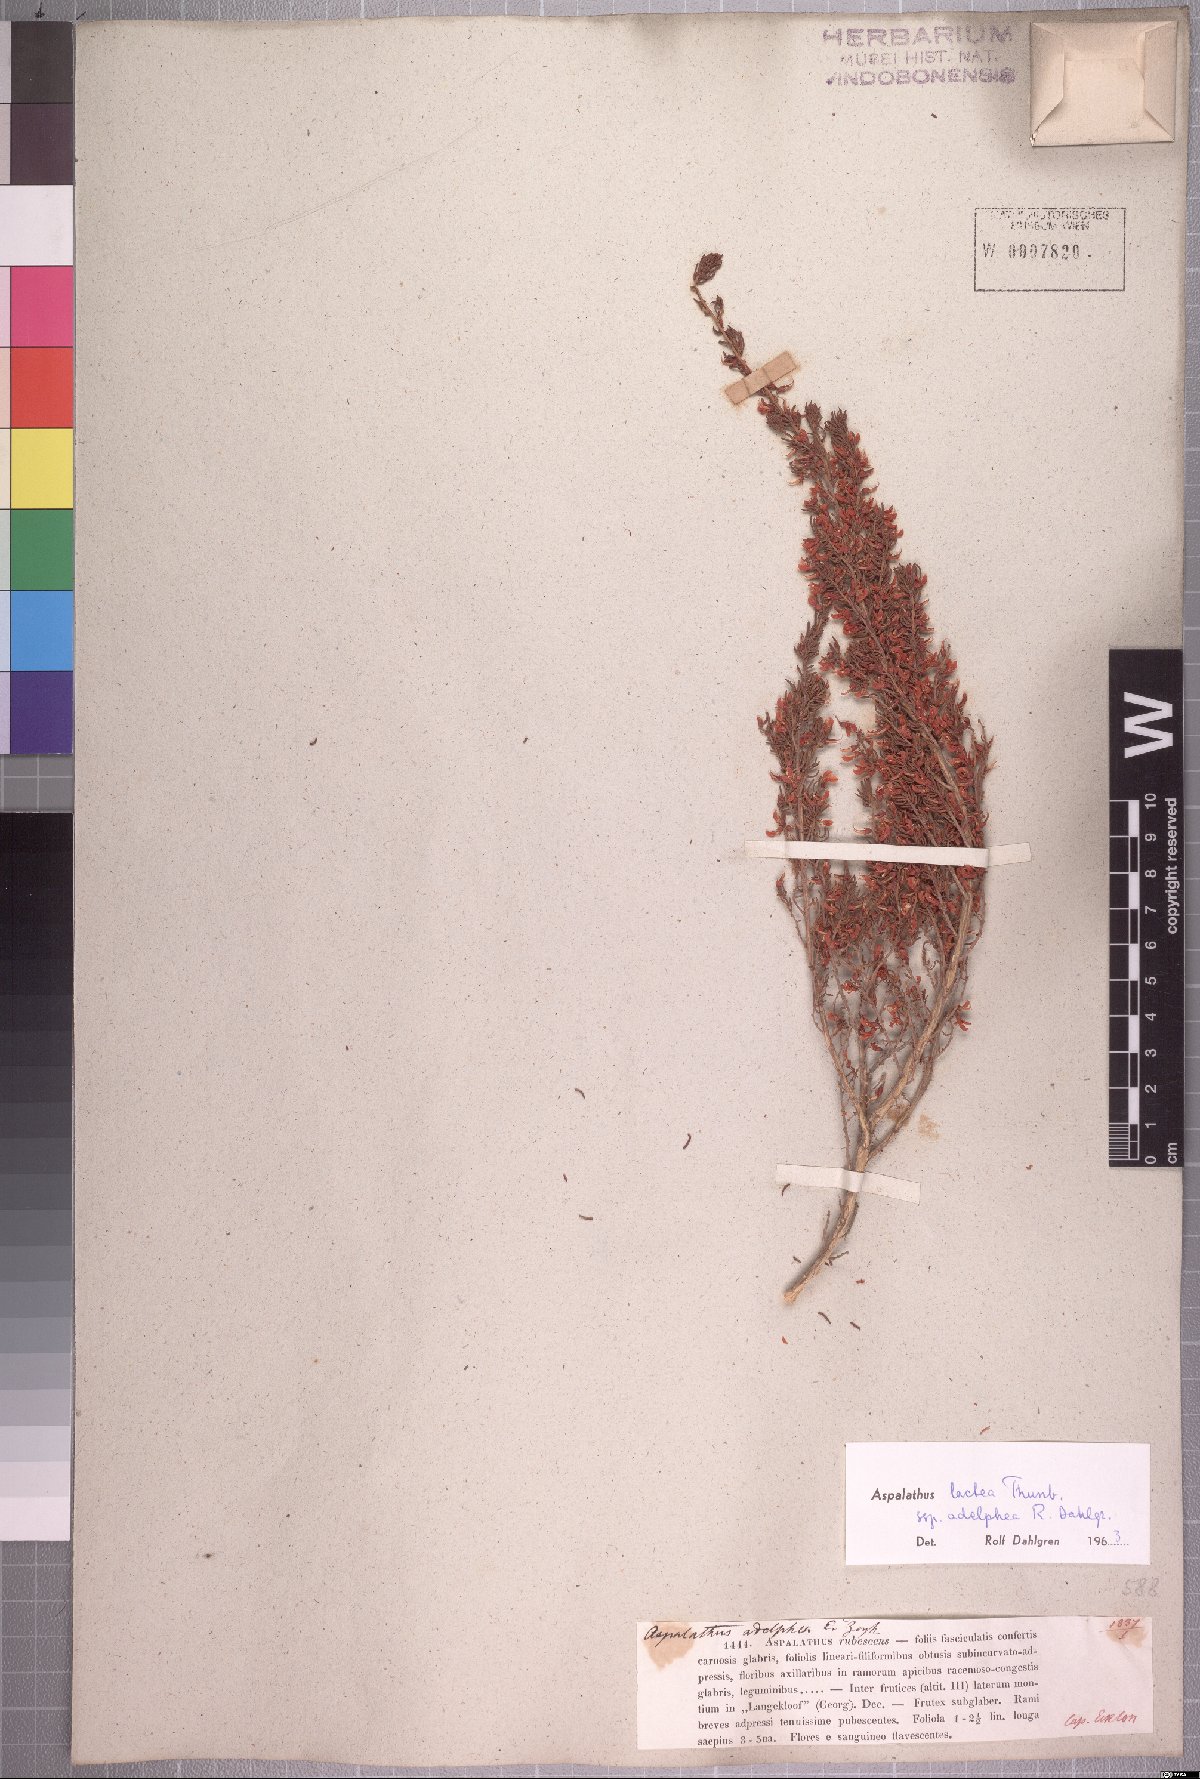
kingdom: Plantae
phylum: Tracheophyta
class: Magnoliopsida
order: Fabales
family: Fabaceae
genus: Aspalathus
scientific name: Aspalathus subtingens
